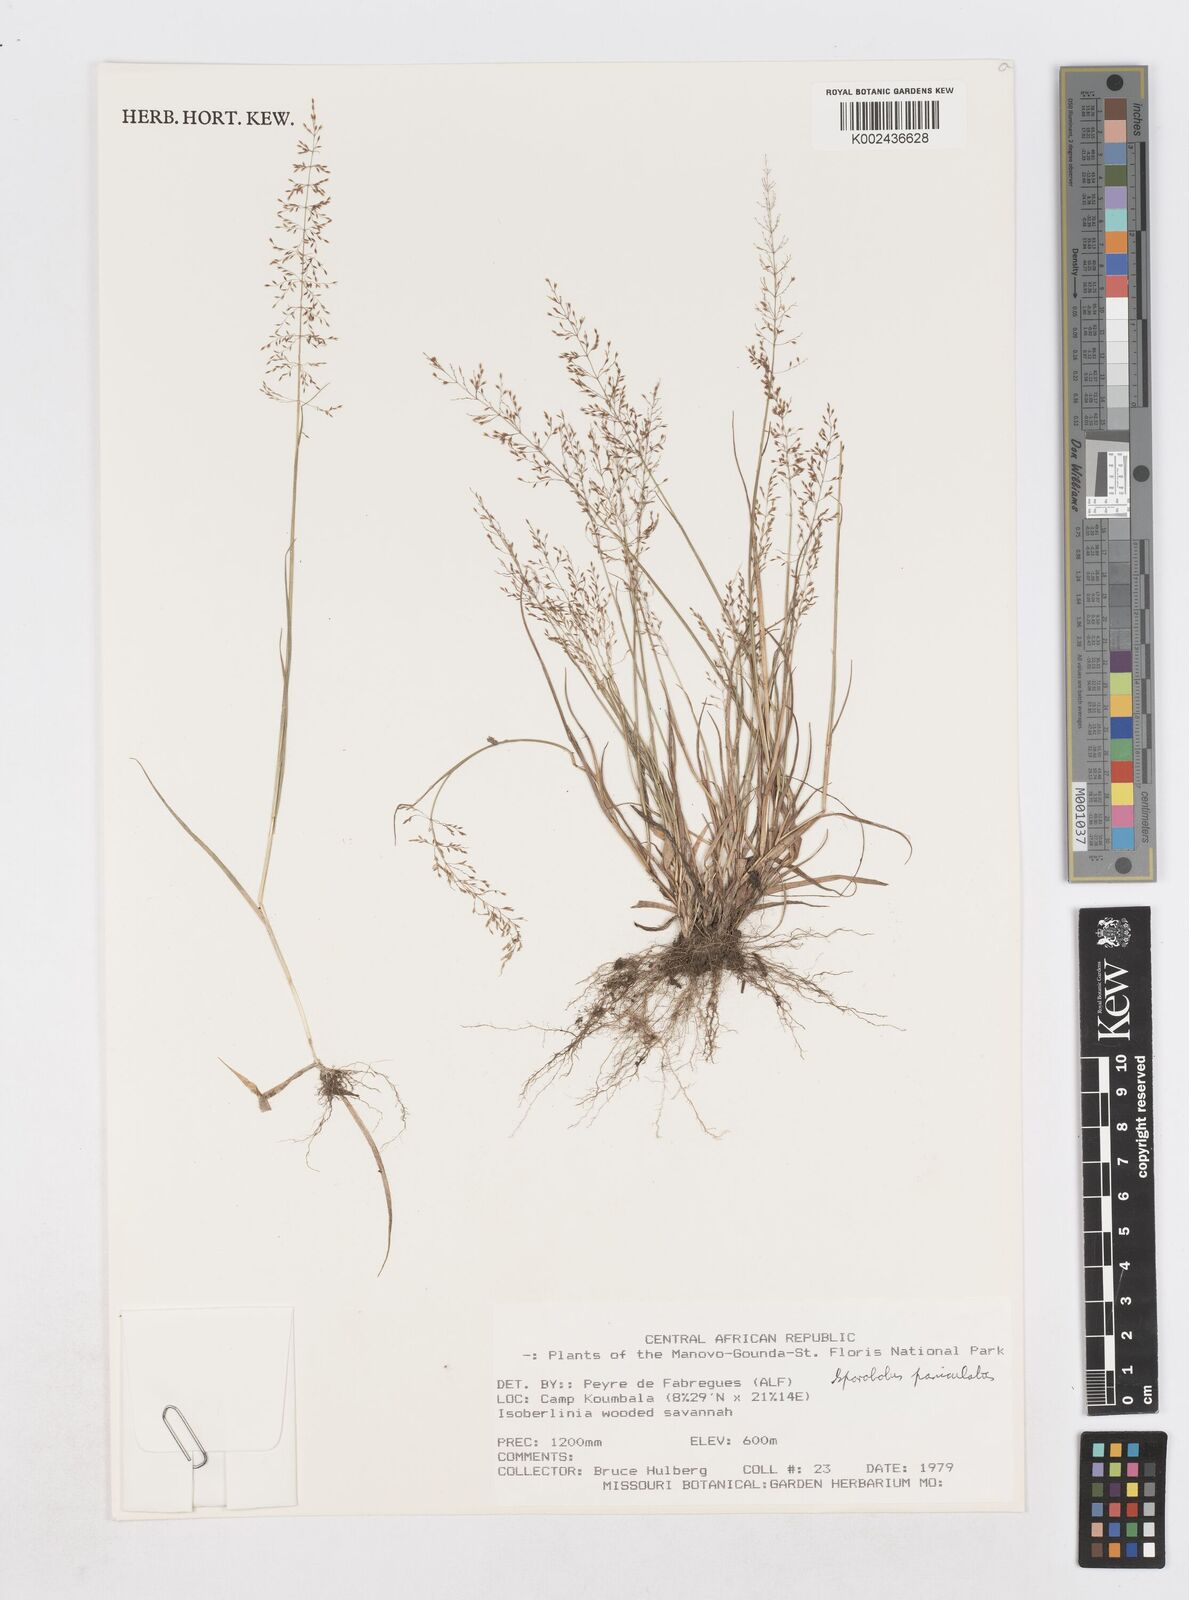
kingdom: Plantae
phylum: Tracheophyta
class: Liliopsida
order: Poales
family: Poaceae
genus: Sporobolus
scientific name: Sporobolus welwitschii
